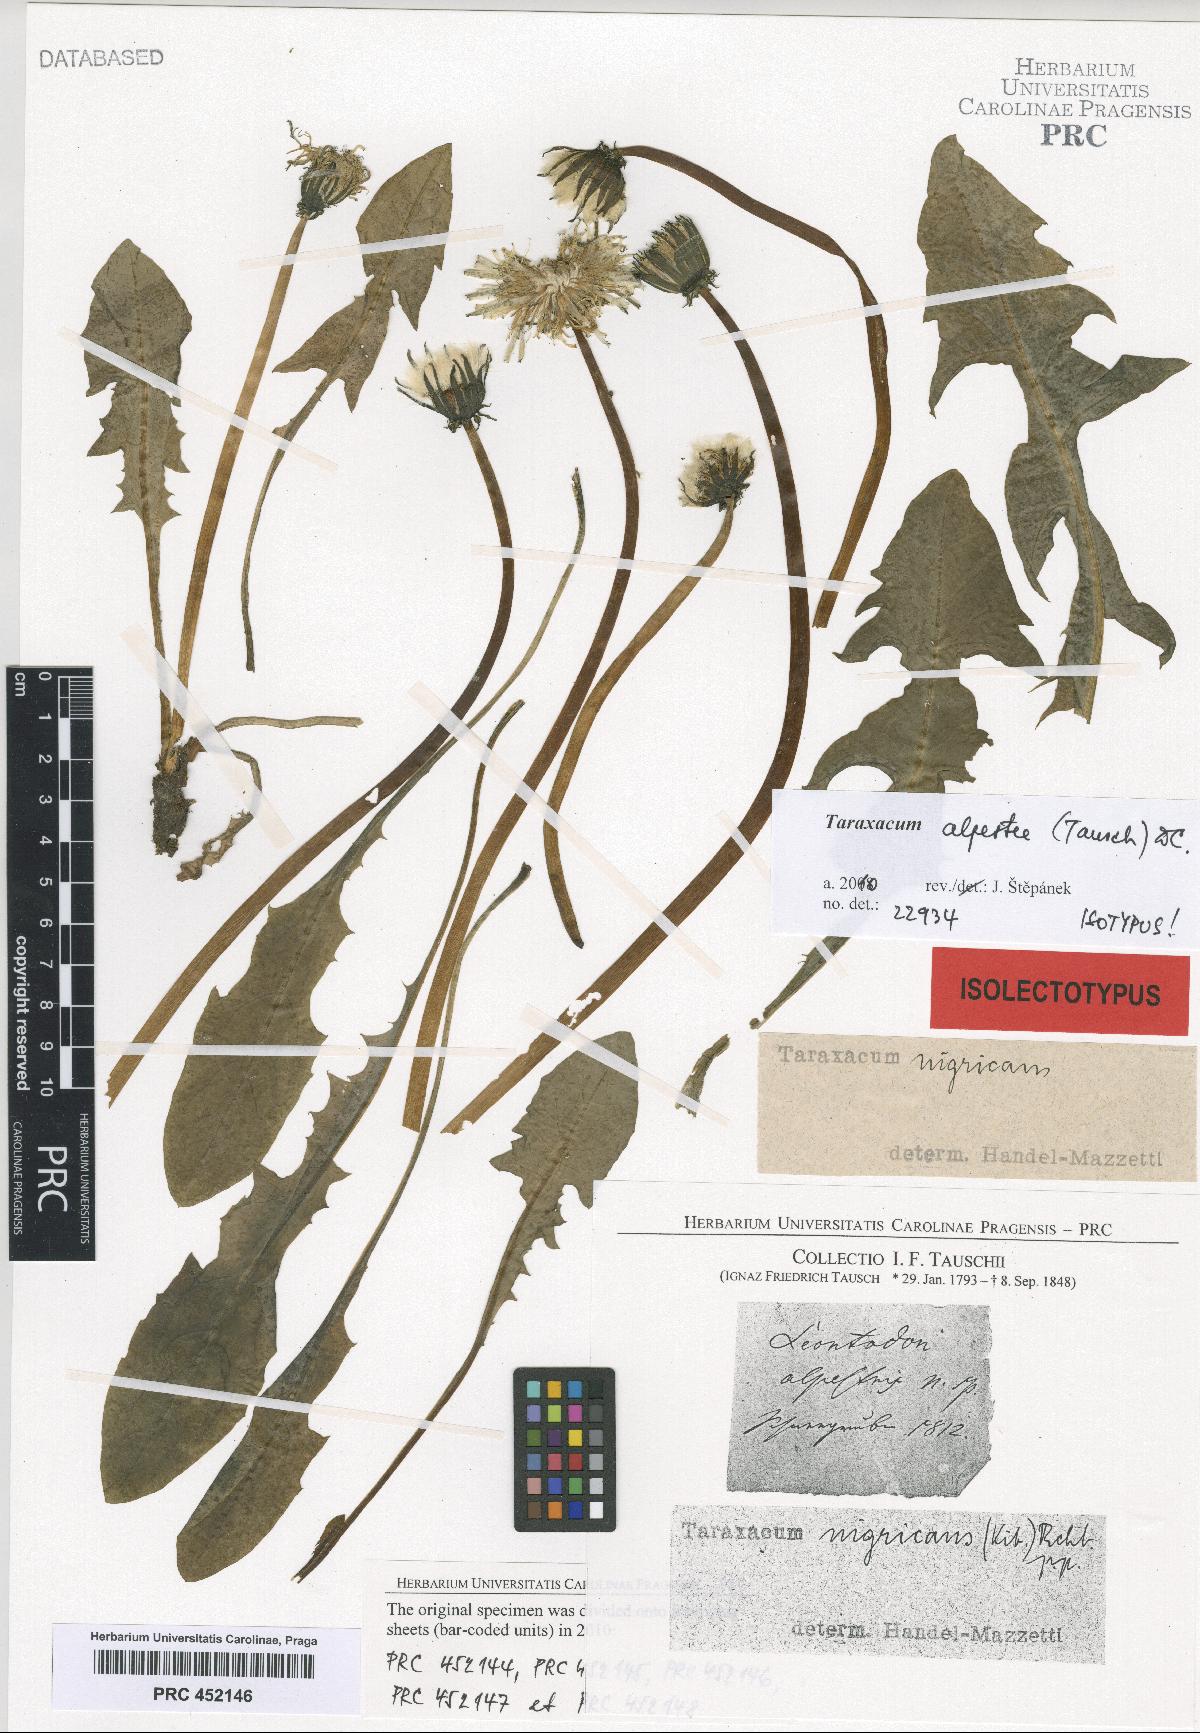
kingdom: Plantae
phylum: Tracheophyta
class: Magnoliopsida
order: Asterales
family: Asteraceae
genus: Taraxacum
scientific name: Taraxacum alpestre
